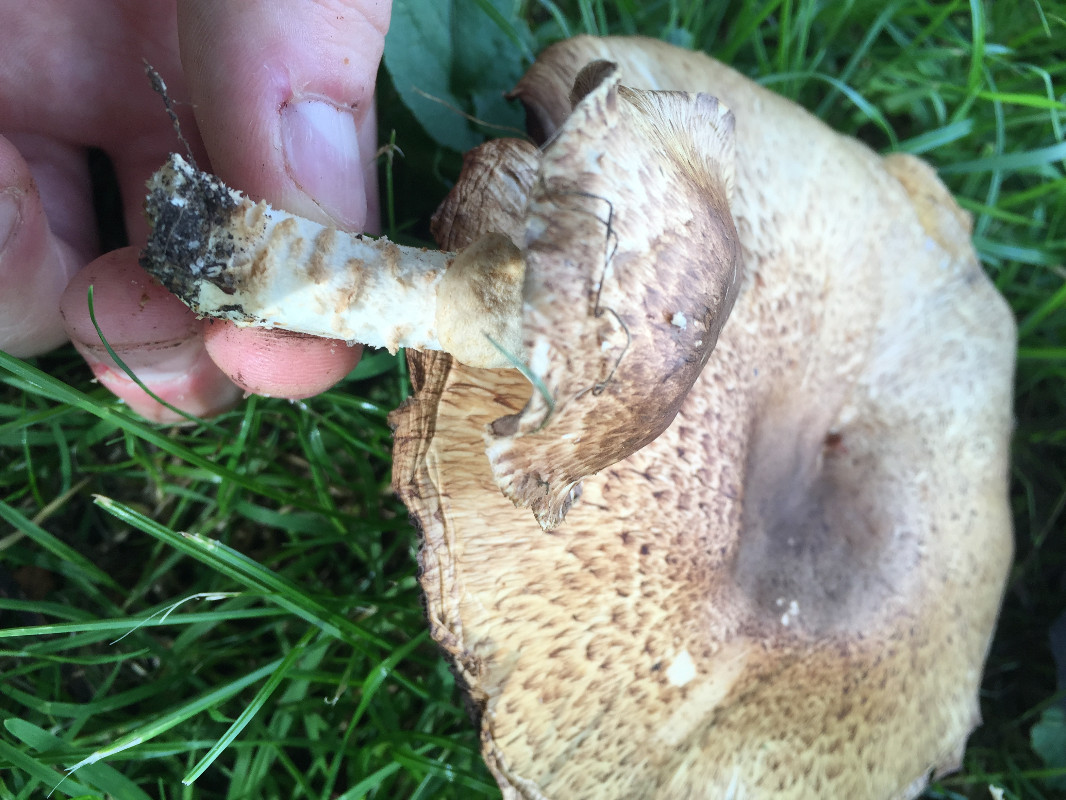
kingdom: Fungi
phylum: Basidiomycota
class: Agaricomycetes
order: Agaricales
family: Agaricaceae
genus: Agaricus
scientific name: Agaricus augustus
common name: prægtig champignon
